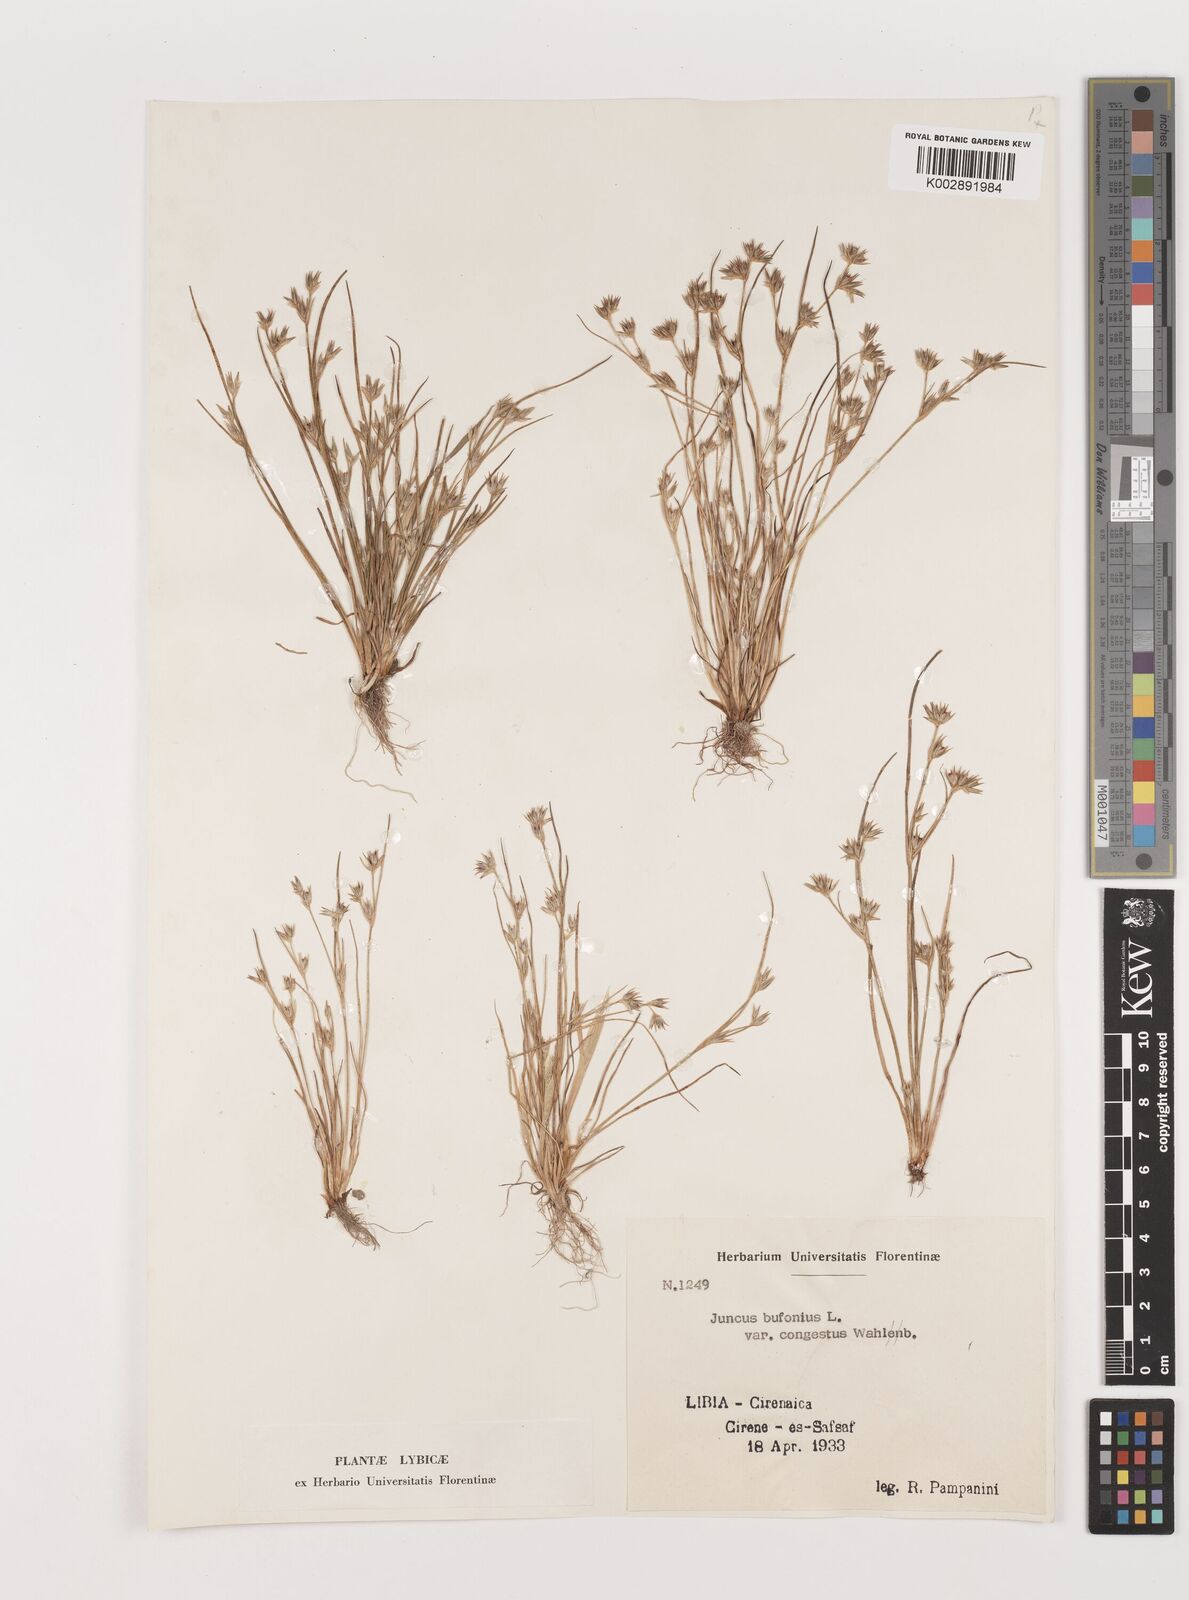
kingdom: Plantae
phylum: Tracheophyta
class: Liliopsida
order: Poales
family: Juncaceae
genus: Juncus
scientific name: Juncus bufonius
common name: Toad rush
